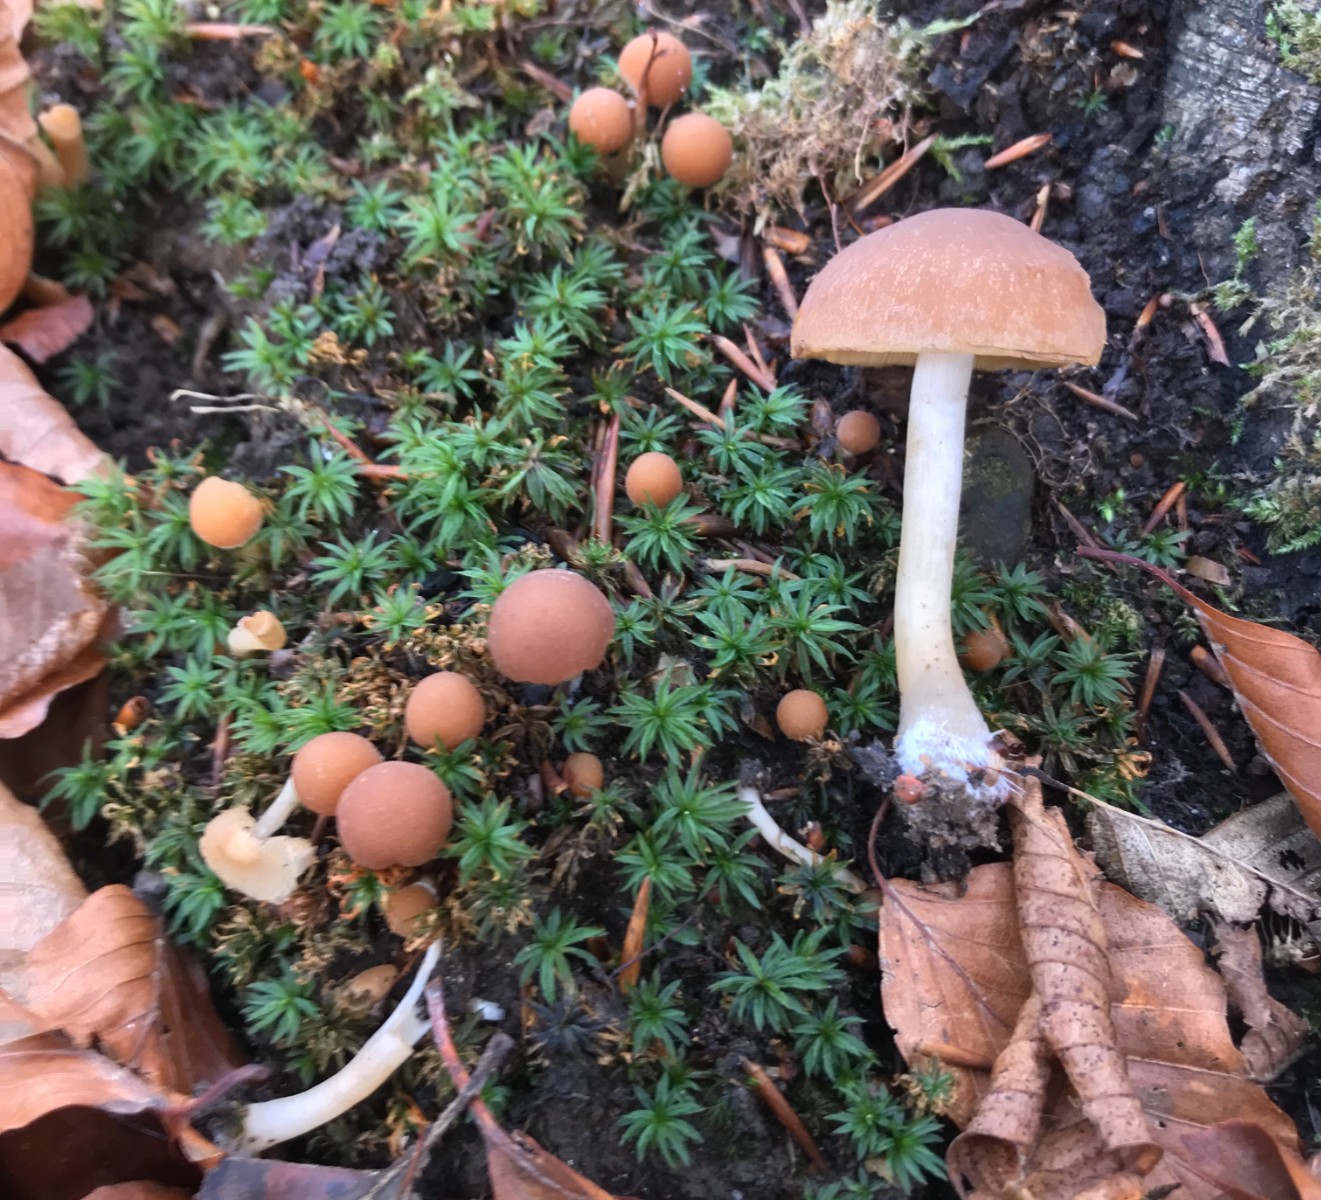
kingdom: Fungi
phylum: Basidiomycota
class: Agaricomycetes
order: Agaricales
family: Psathyrellaceae
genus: Psathyrella
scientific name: Psathyrella piluliformis
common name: lysstokket mørkhat
